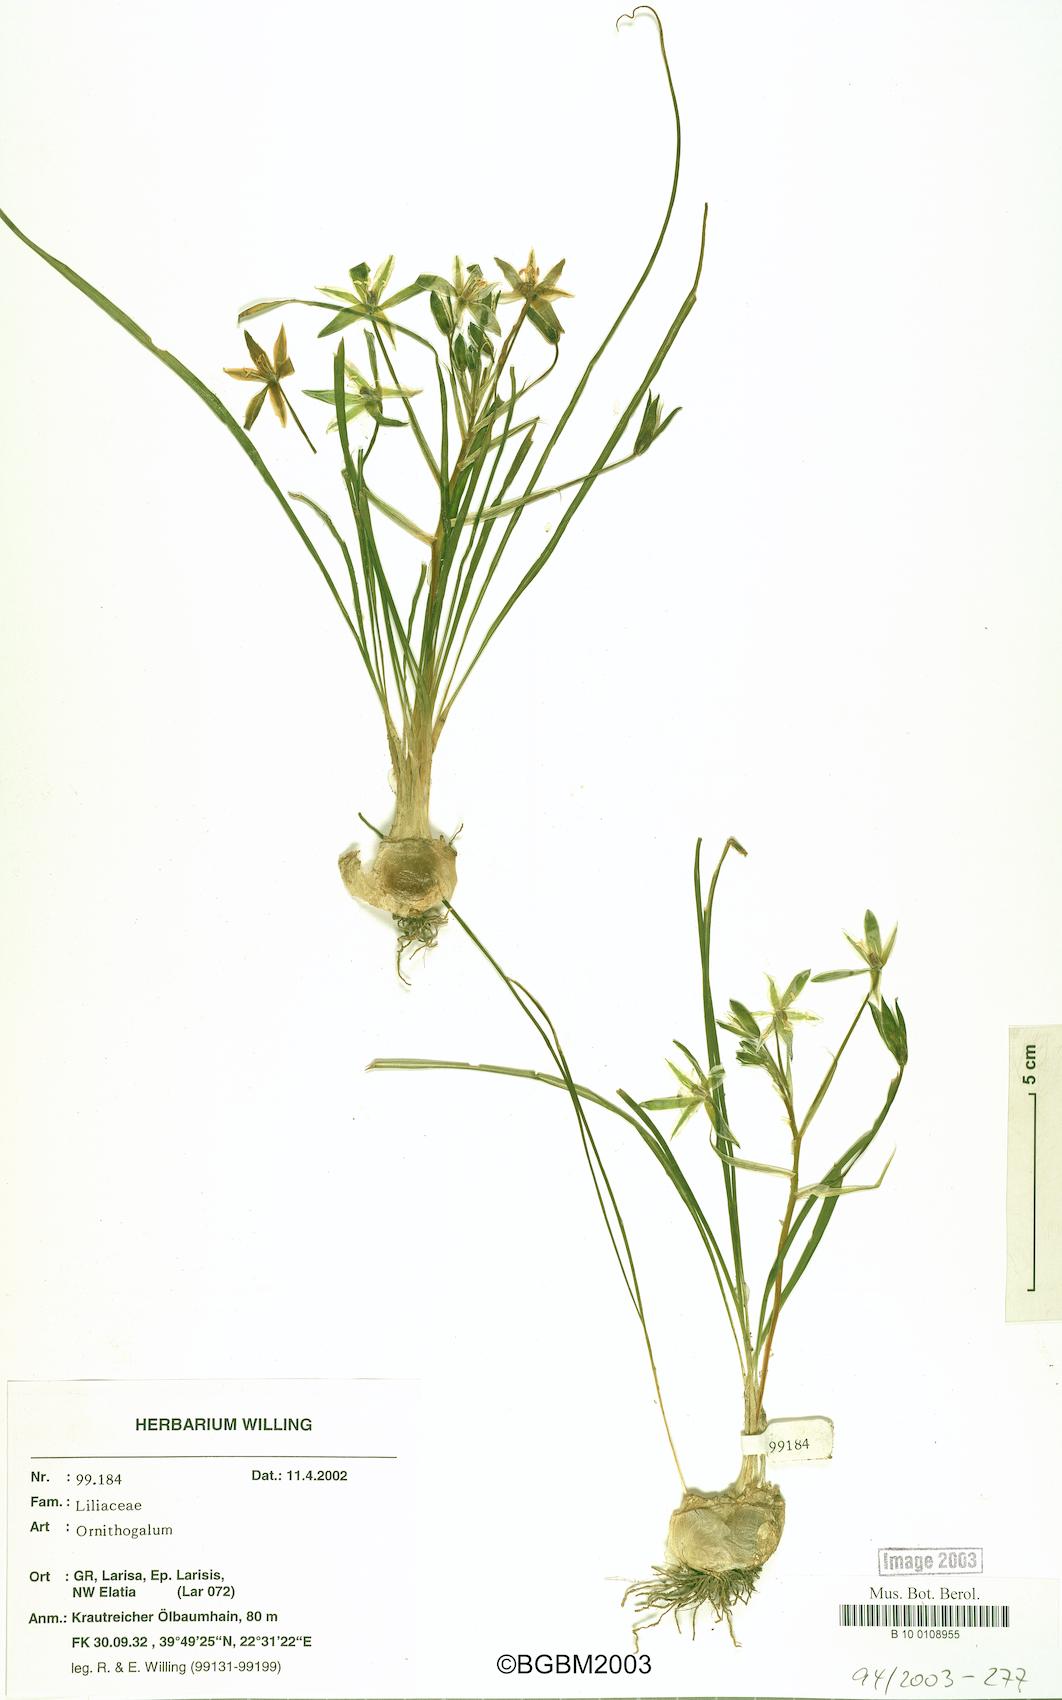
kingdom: Plantae
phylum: Tracheophyta
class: Liliopsida
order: Asparagales
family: Asparagaceae
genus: Ornithogalum
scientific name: Ornithogalum
